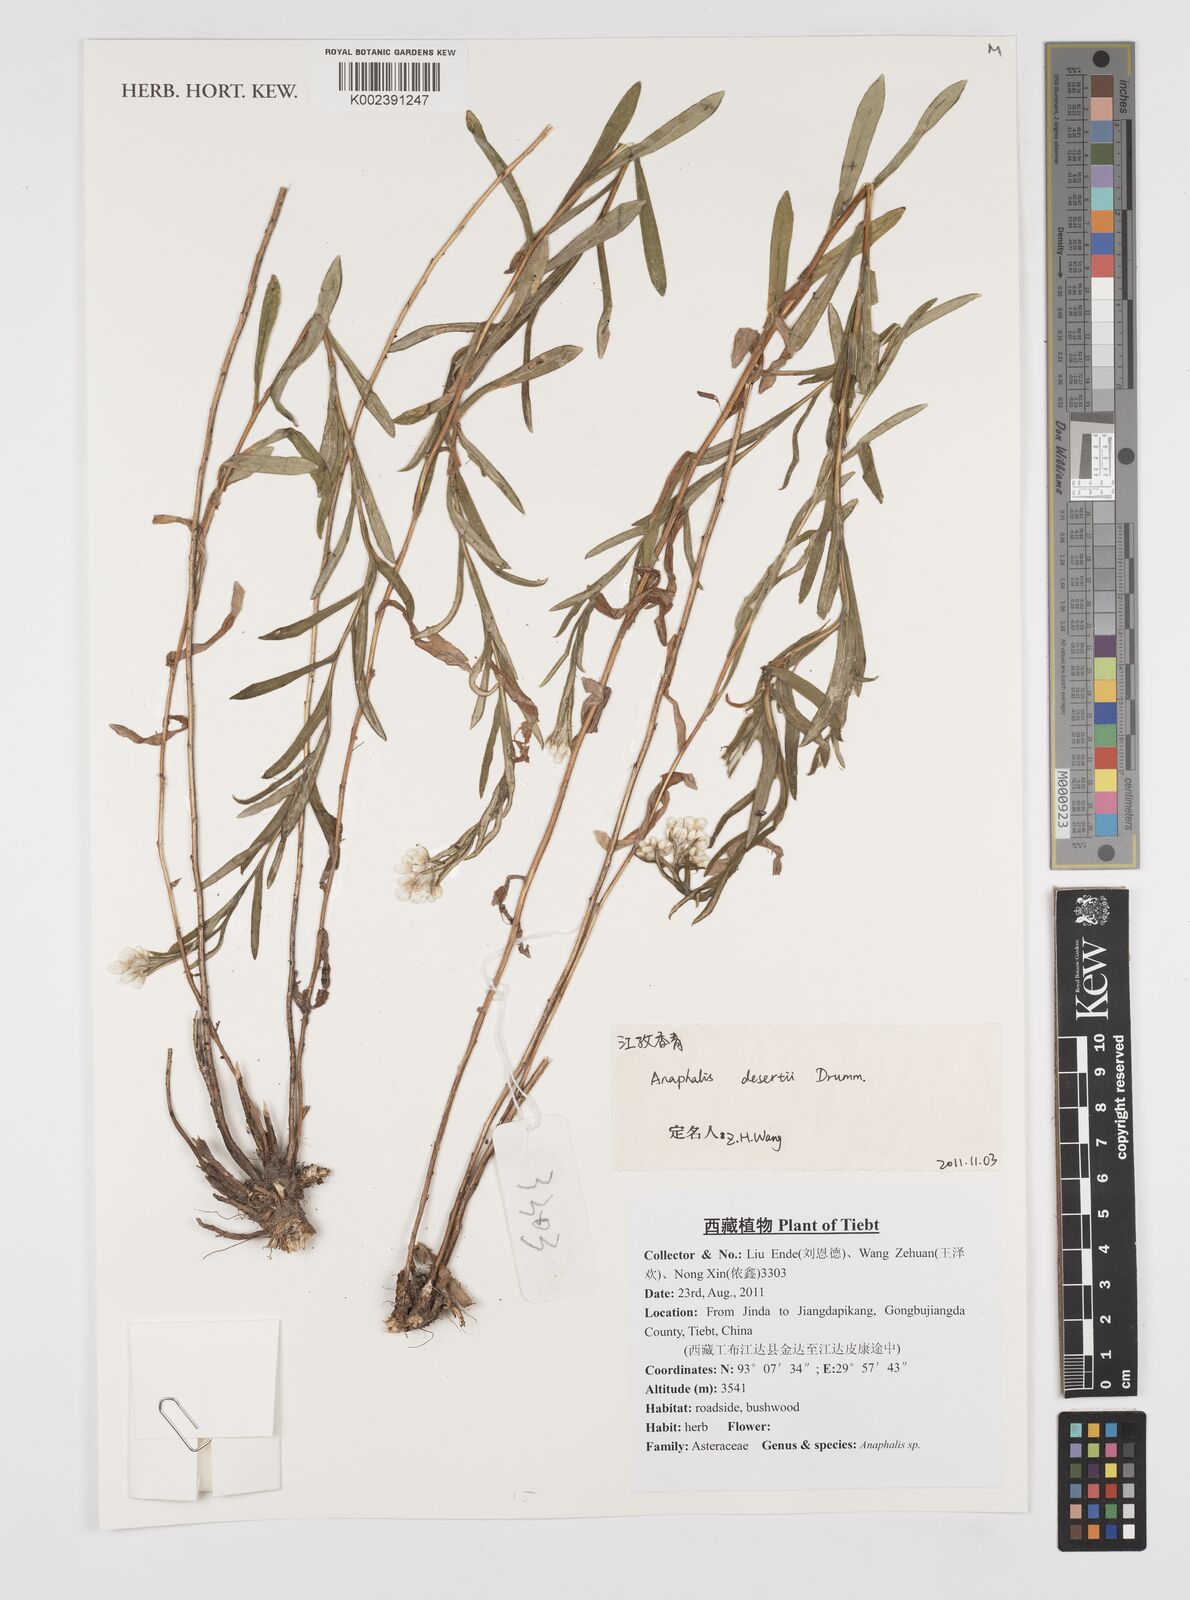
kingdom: Plantae
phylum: Tracheophyta
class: Magnoliopsida
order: Asterales
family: Asteraceae
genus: Anaphalis
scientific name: Anaphalis deserti
